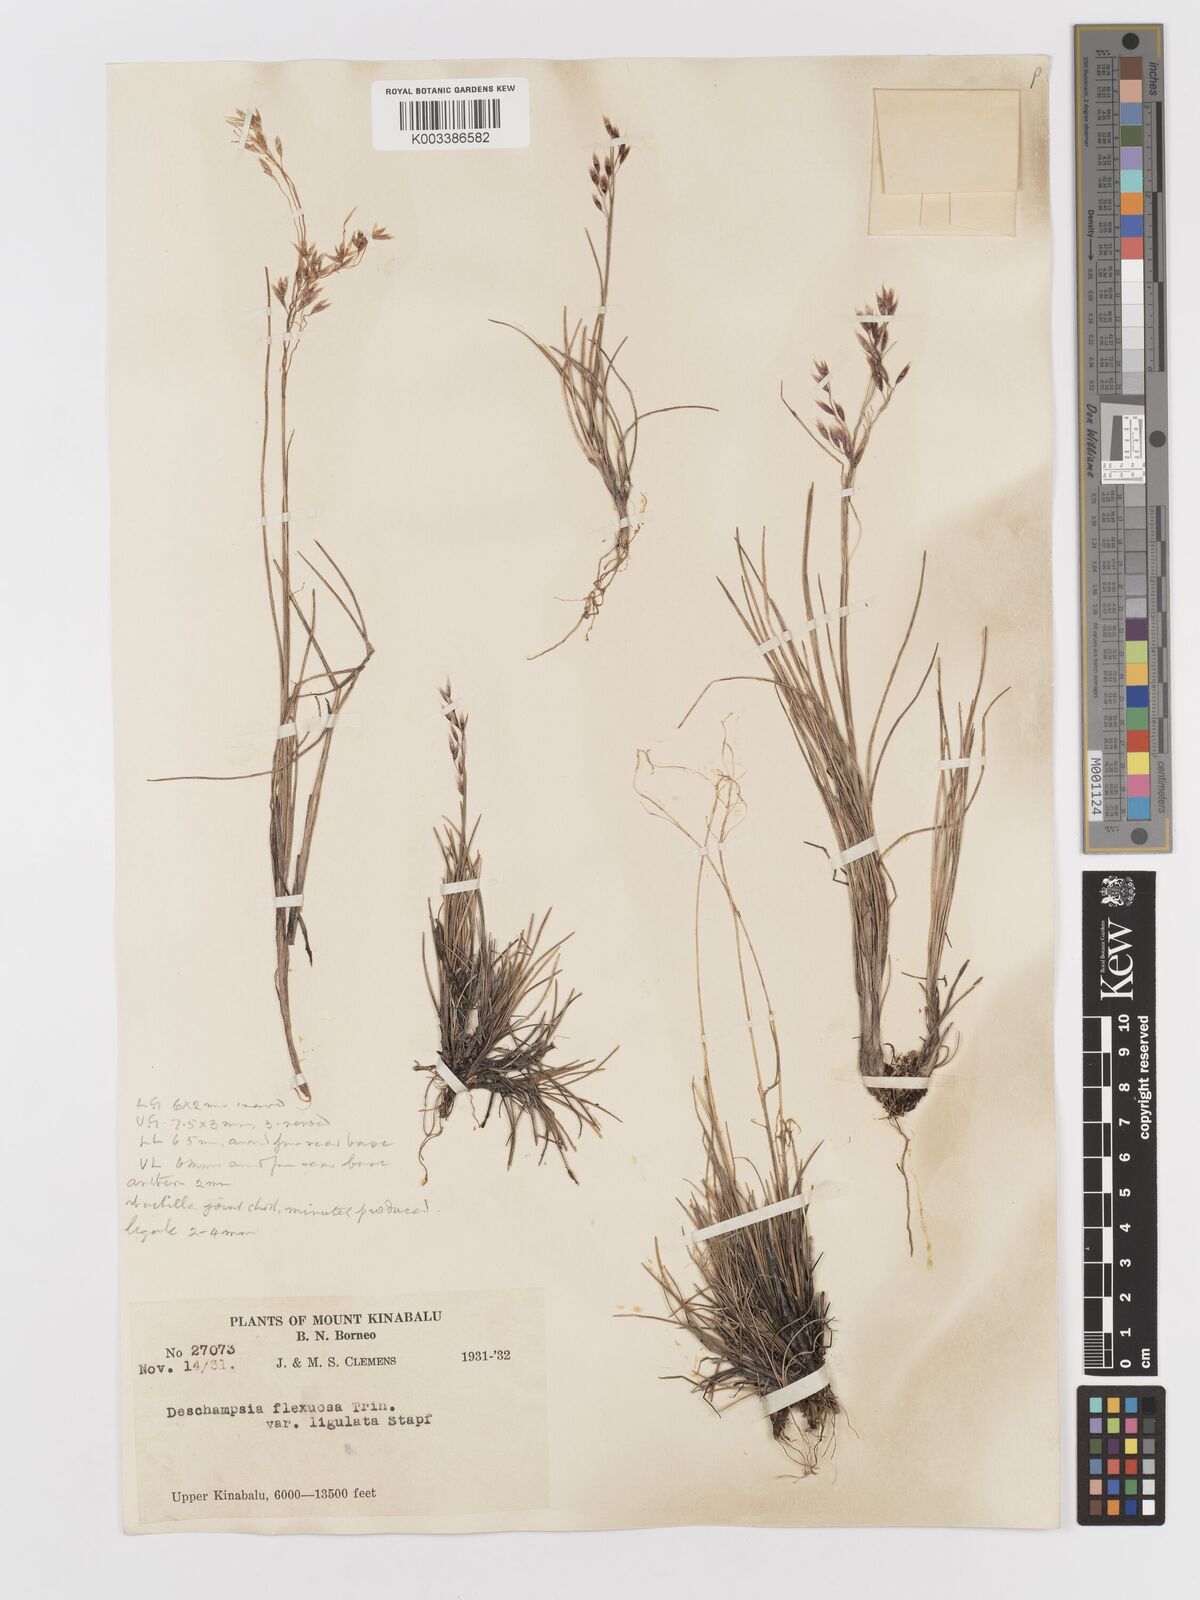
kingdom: Plantae
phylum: Tracheophyta
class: Liliopsida
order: Poales
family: Poaceae
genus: Avenella
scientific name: Avenella flexuosa
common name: Wavy hairgrass
